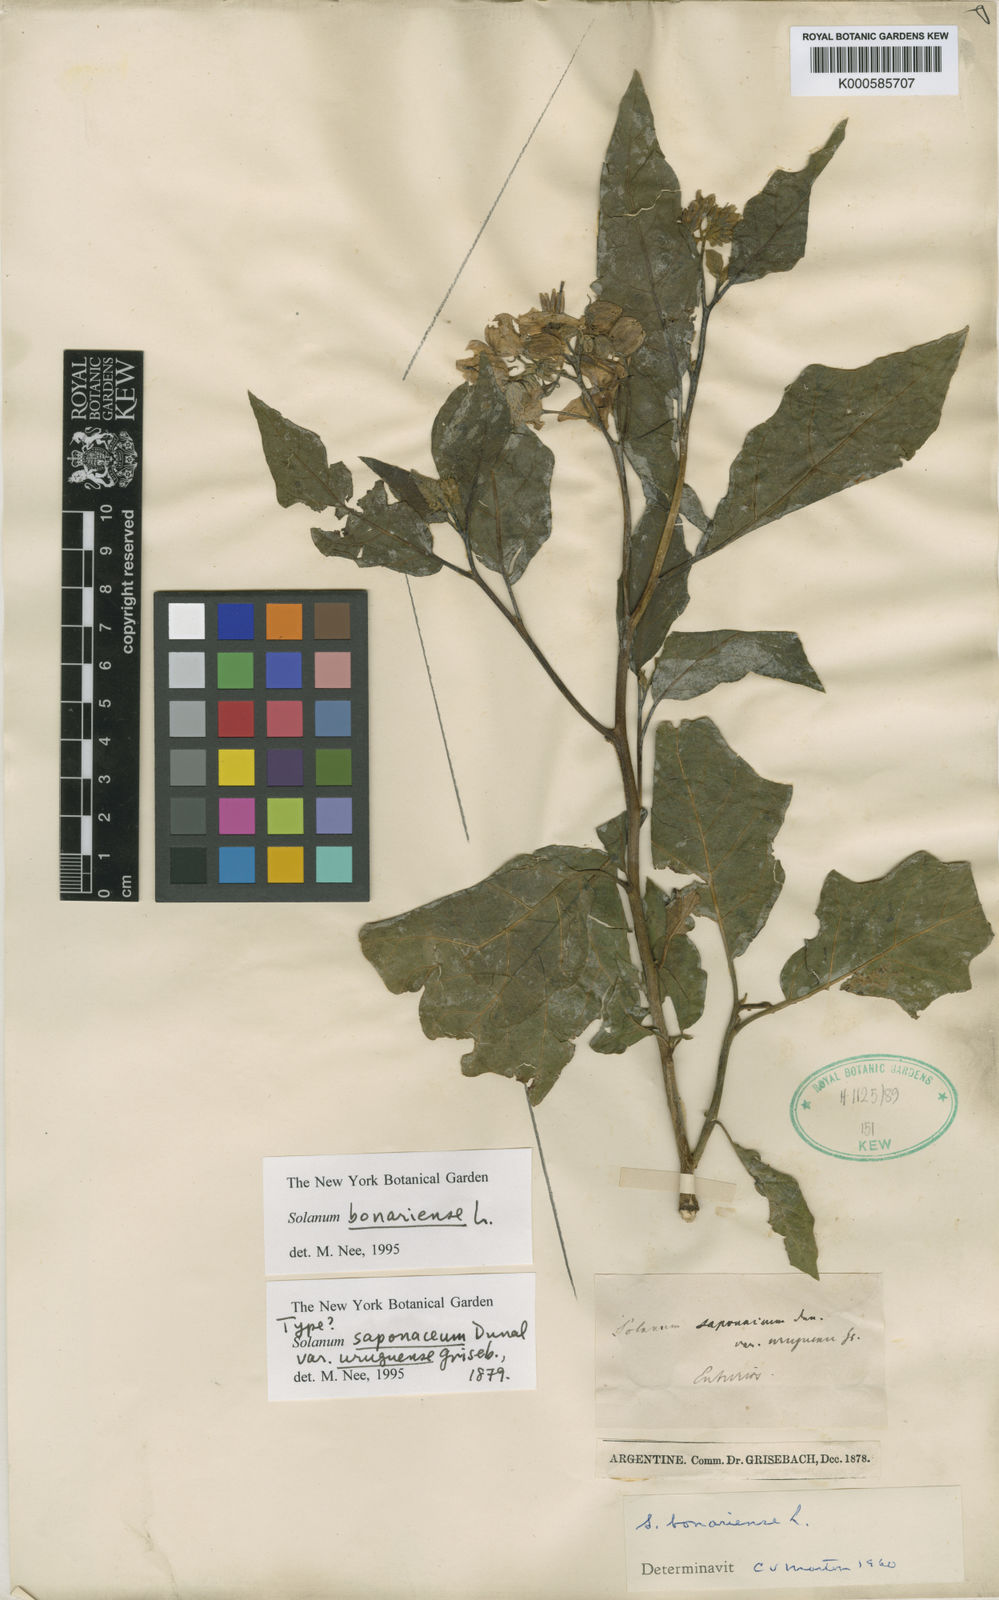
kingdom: Plantae
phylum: Tracheophyta
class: Magnoliopsida
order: Solanales
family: Solanaceae
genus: Solanum
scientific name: Solanum bonariense
